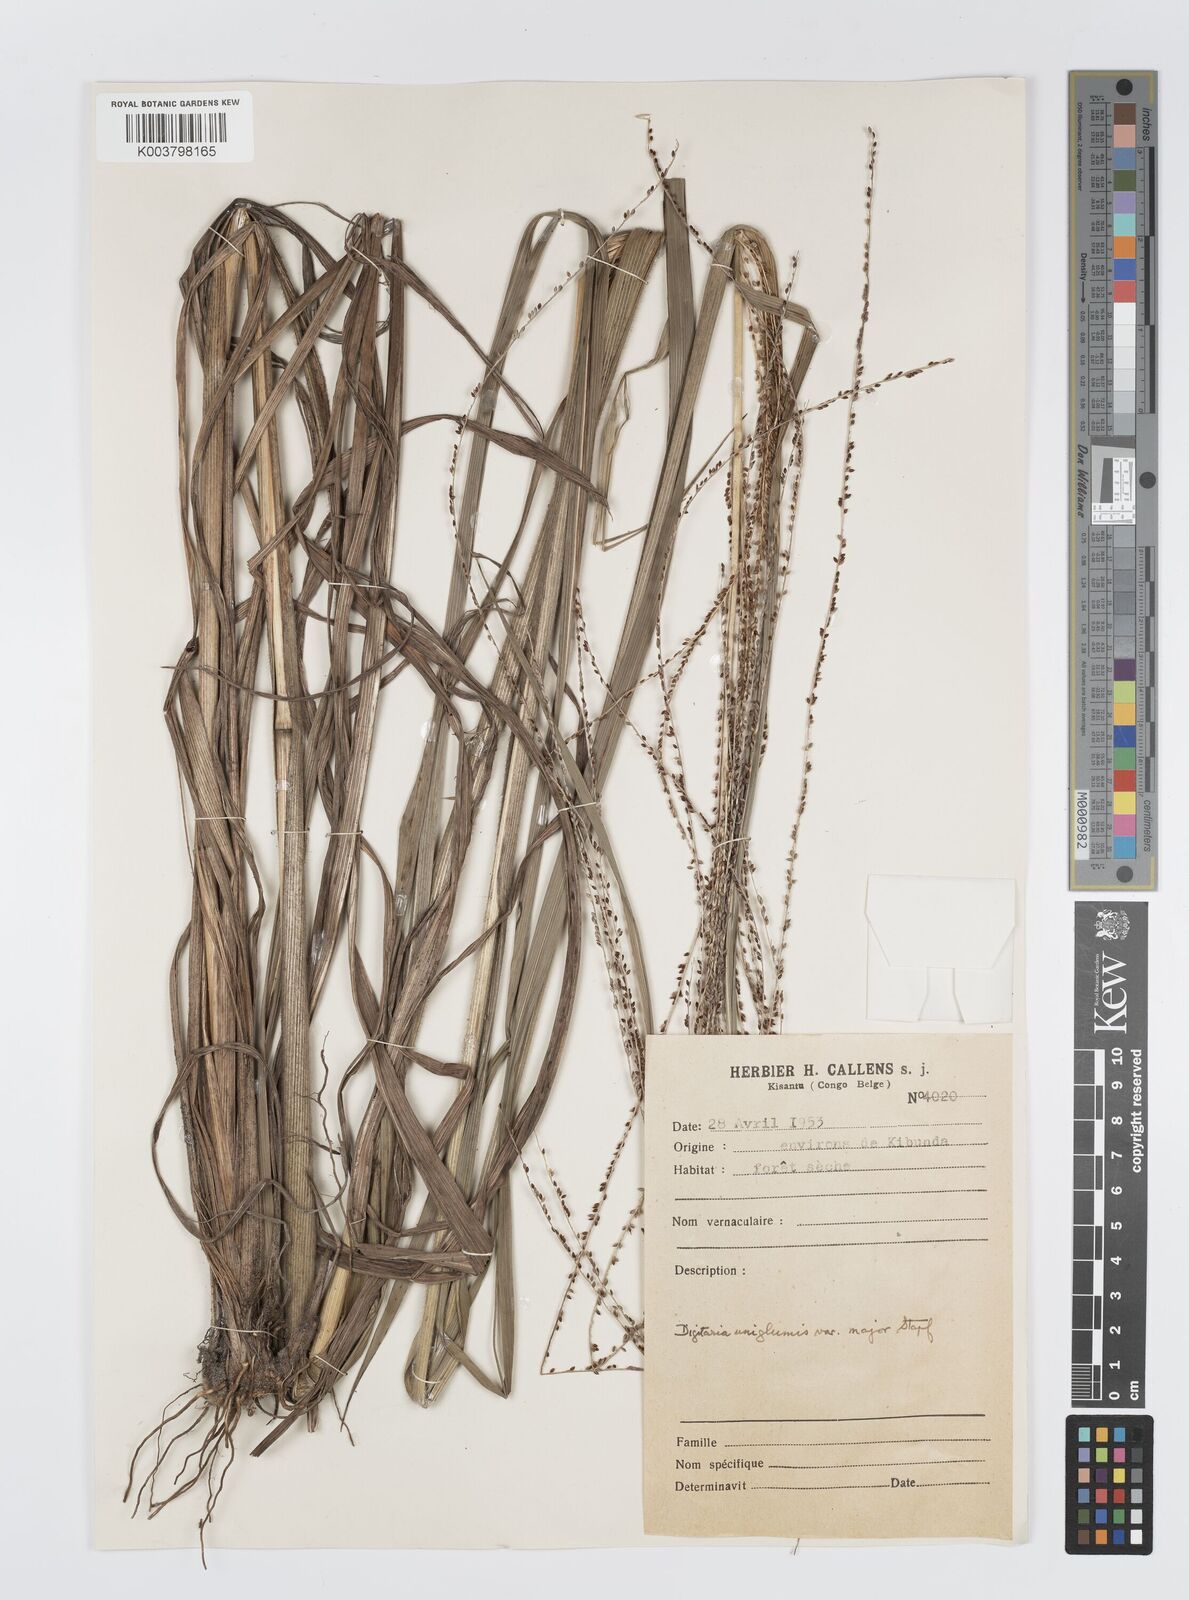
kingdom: Plantae
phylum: Tracheophyta
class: Liliopsida
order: Poales
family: Poaceae
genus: Digitaria
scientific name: Digitaria diagonalis
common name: Brown-seed finger grass
